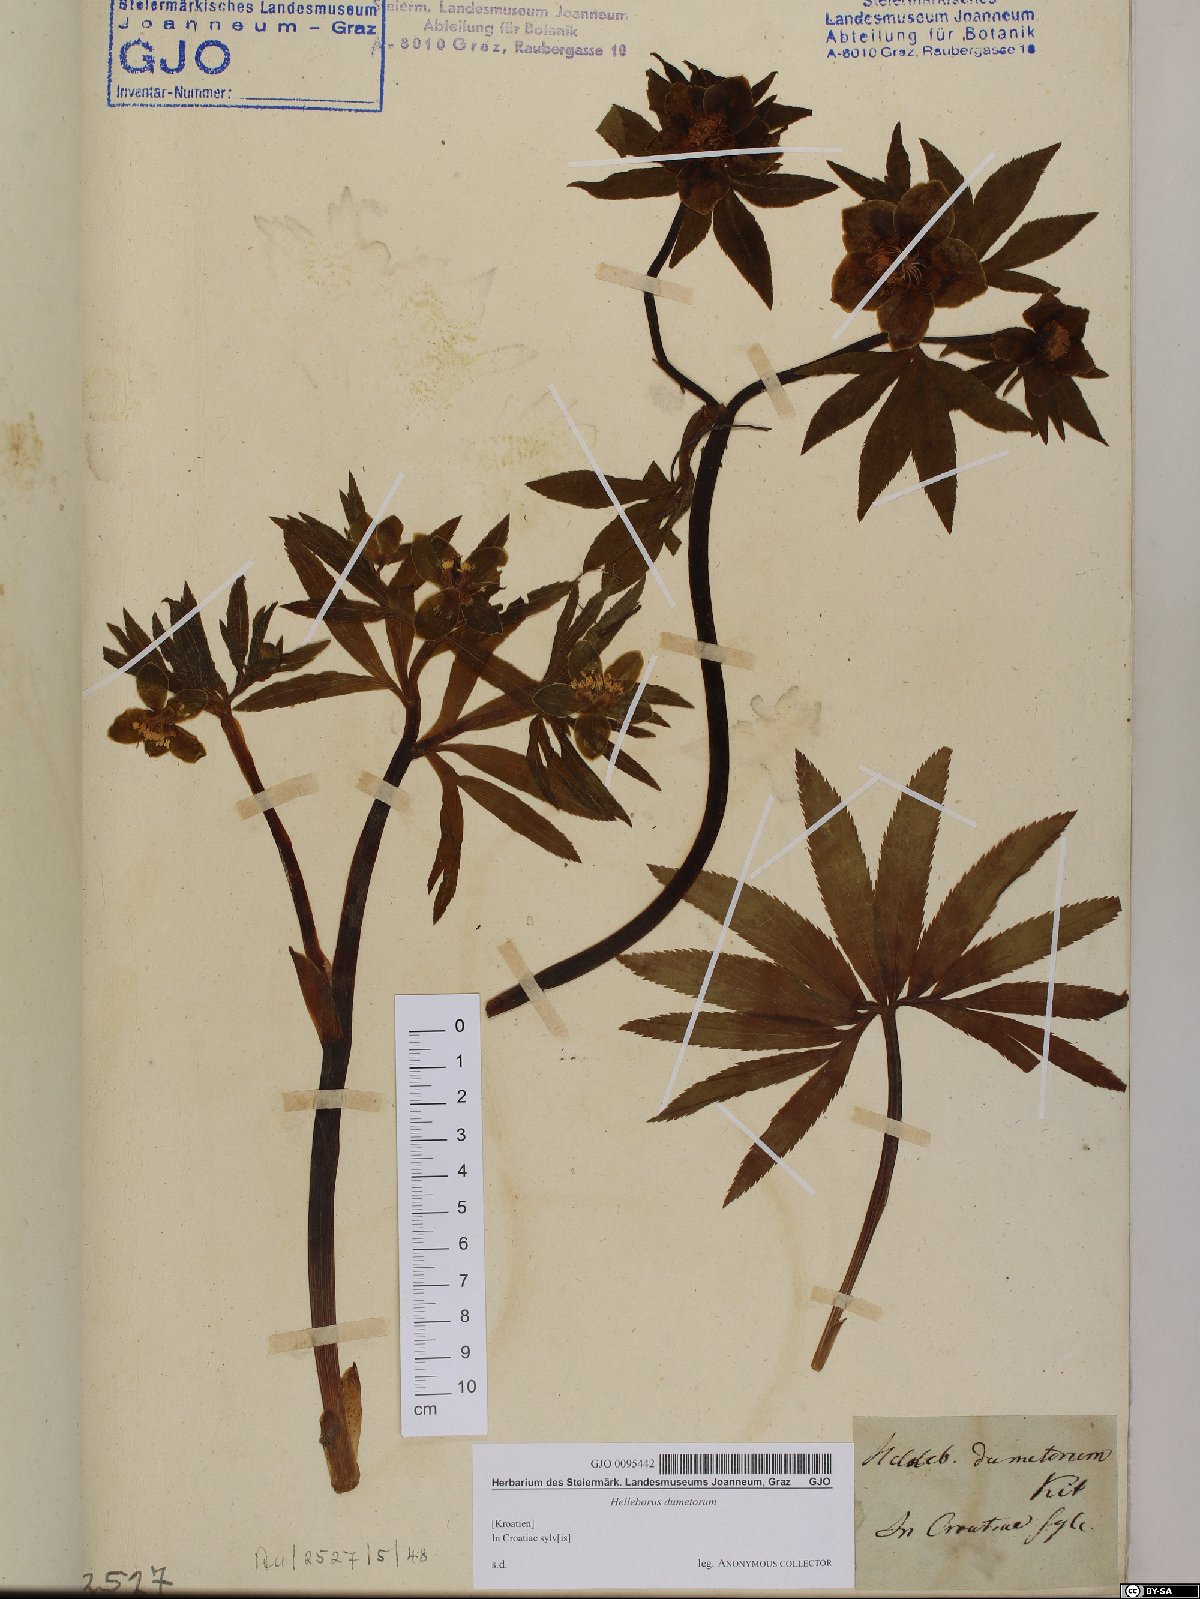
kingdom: Plantae
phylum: Tracheophyta
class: Magnoliopsida
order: Ranunculales
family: Ranunculaceae
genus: Helleborus
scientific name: Helleborus dumetorum
